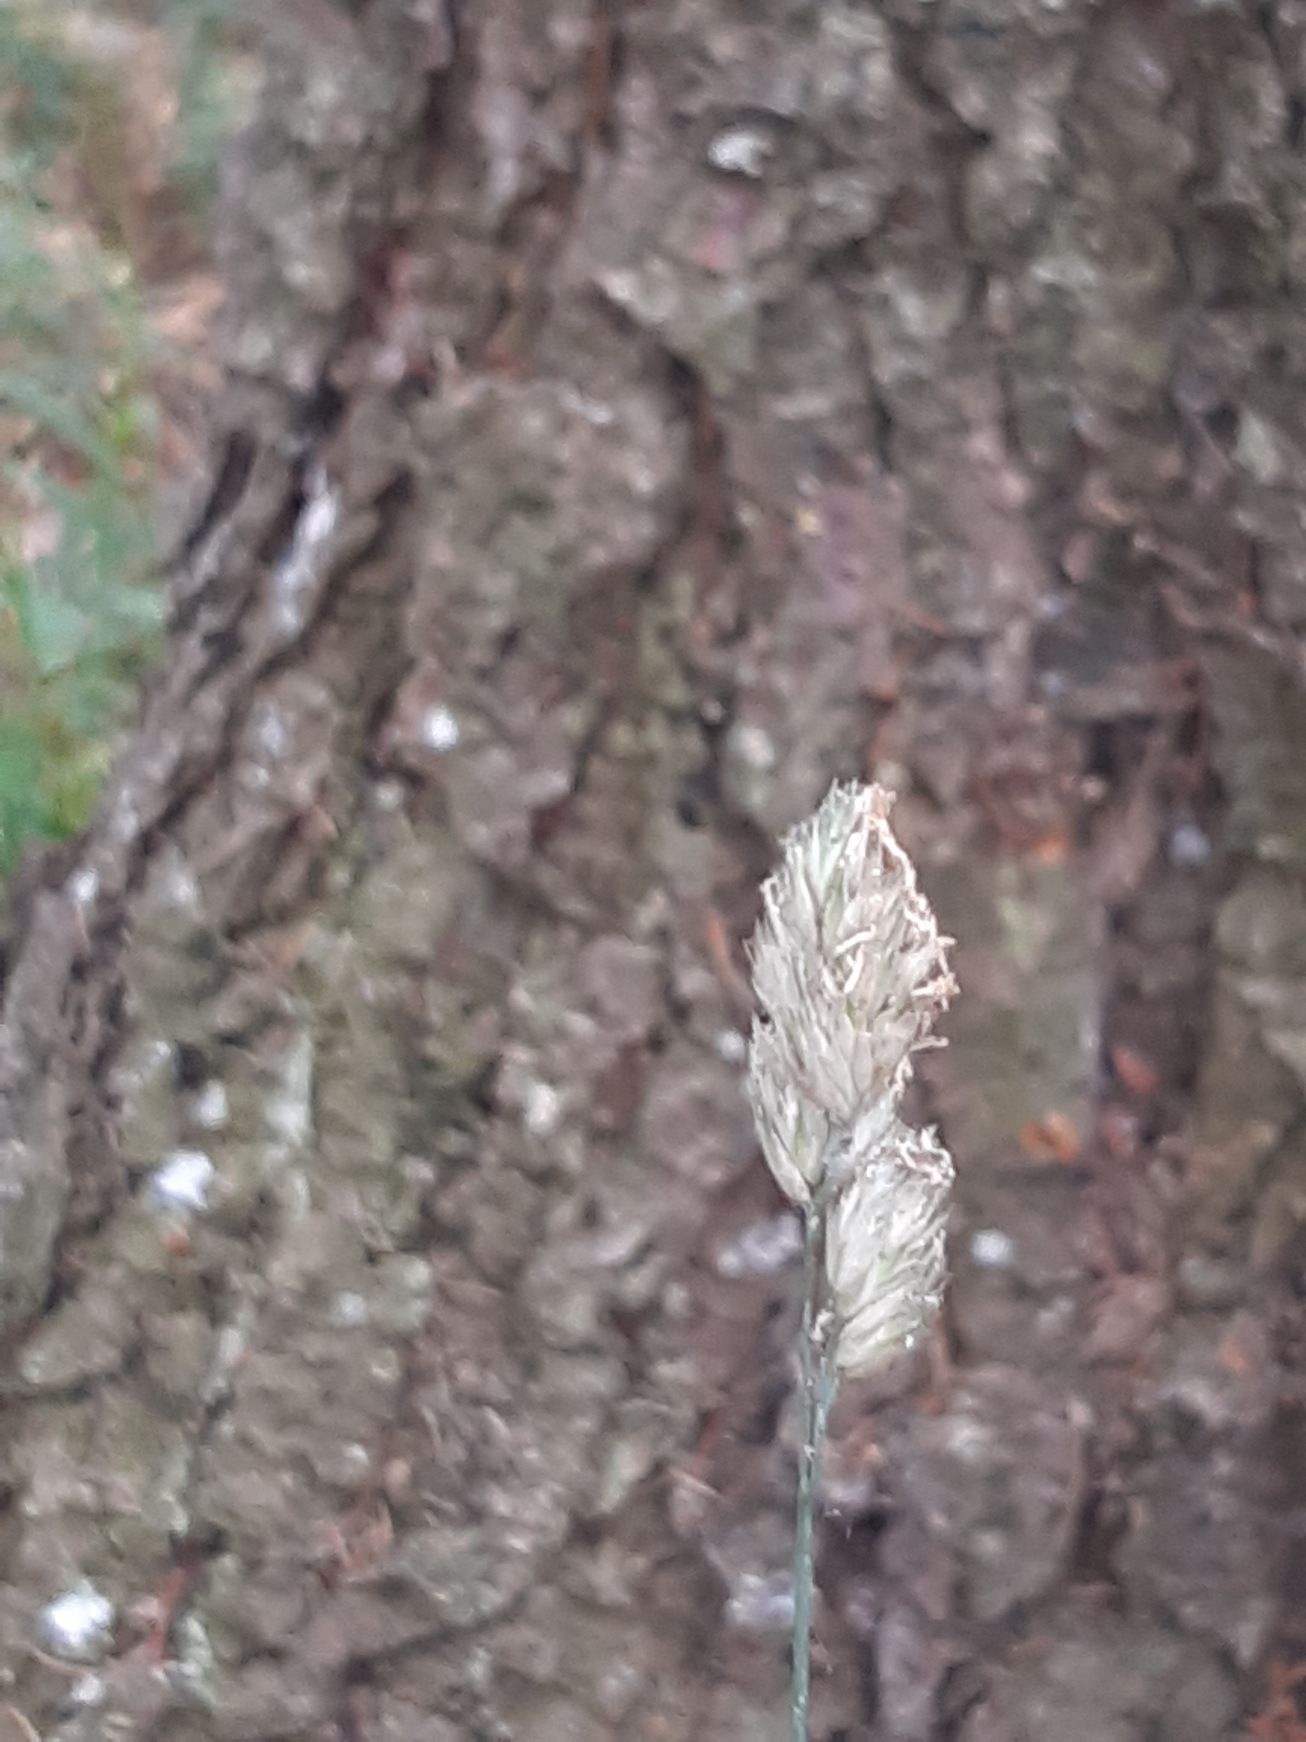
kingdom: Plantae
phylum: Tracheophyta
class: Liliopsida
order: Poales
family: Poaceae
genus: Dactylis
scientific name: Dactylis glomerata
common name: Almindelig hundegræs
